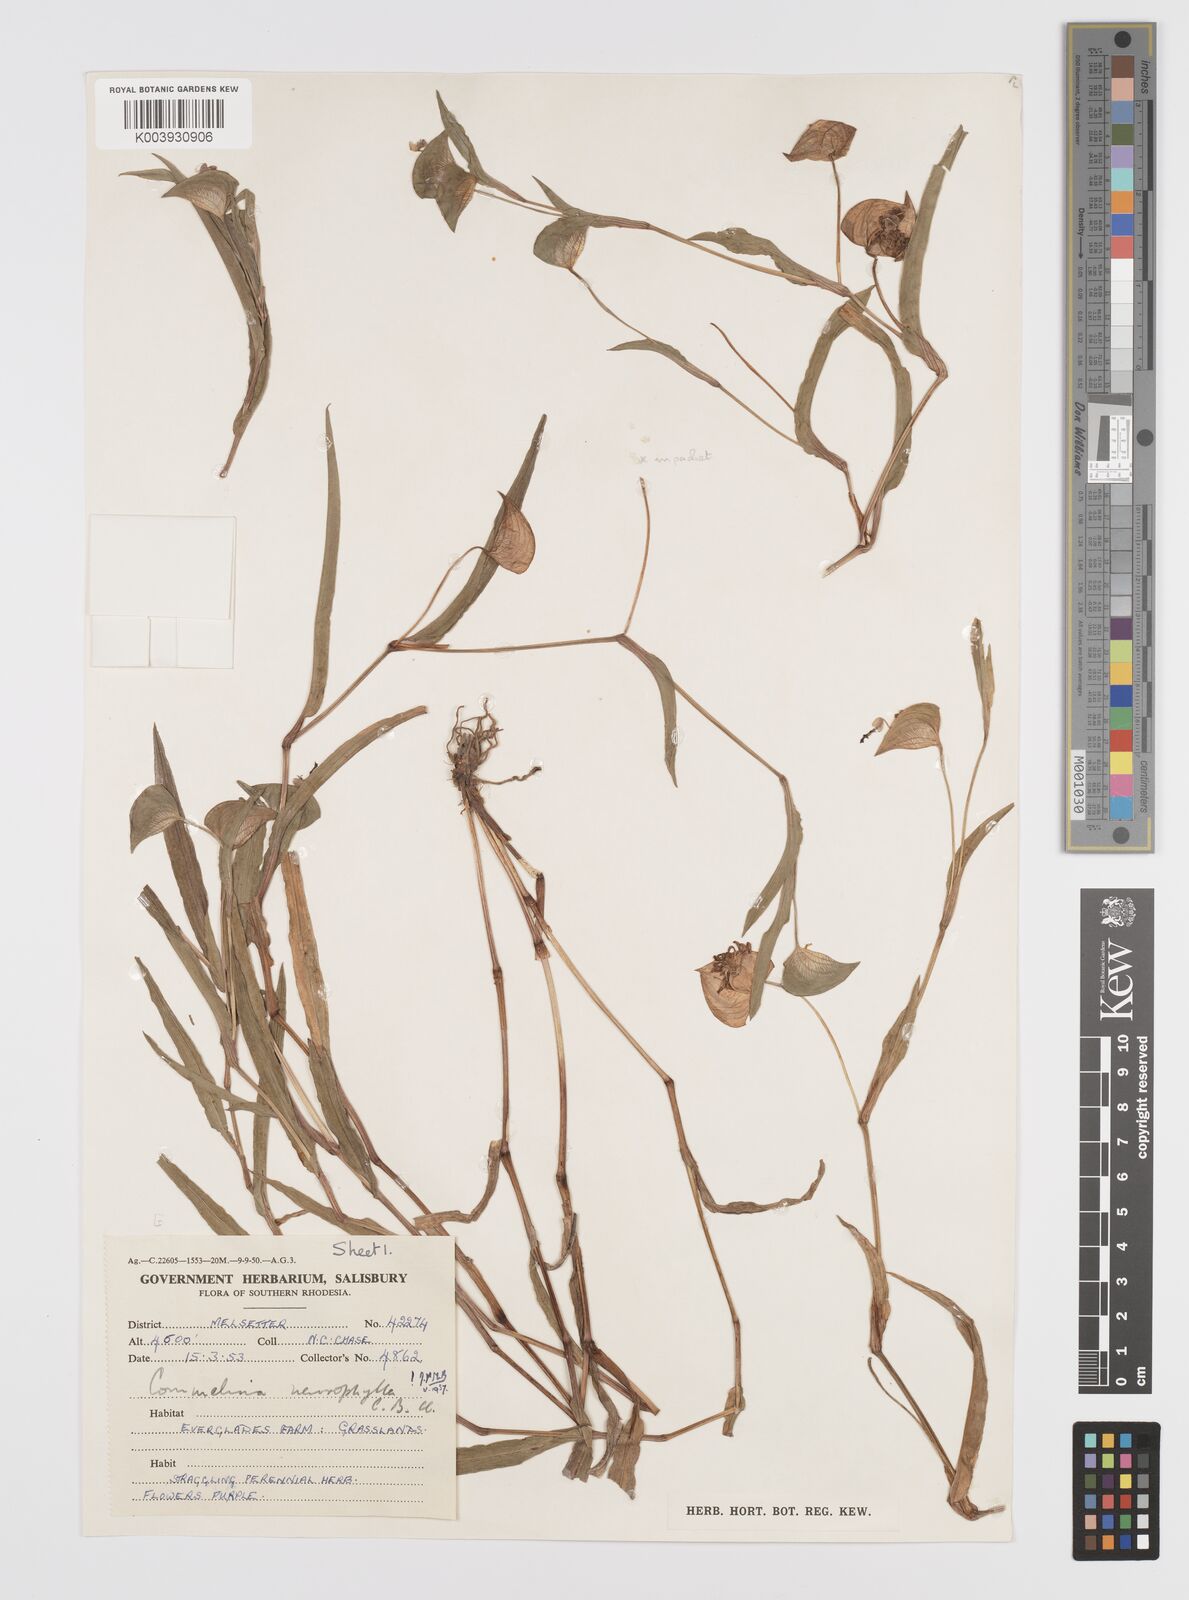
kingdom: Plantae
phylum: Tracheophyta
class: Liliopsida
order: Commelinales
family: Commelinaceae
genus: Commelina
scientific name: Commelina neurophylla
